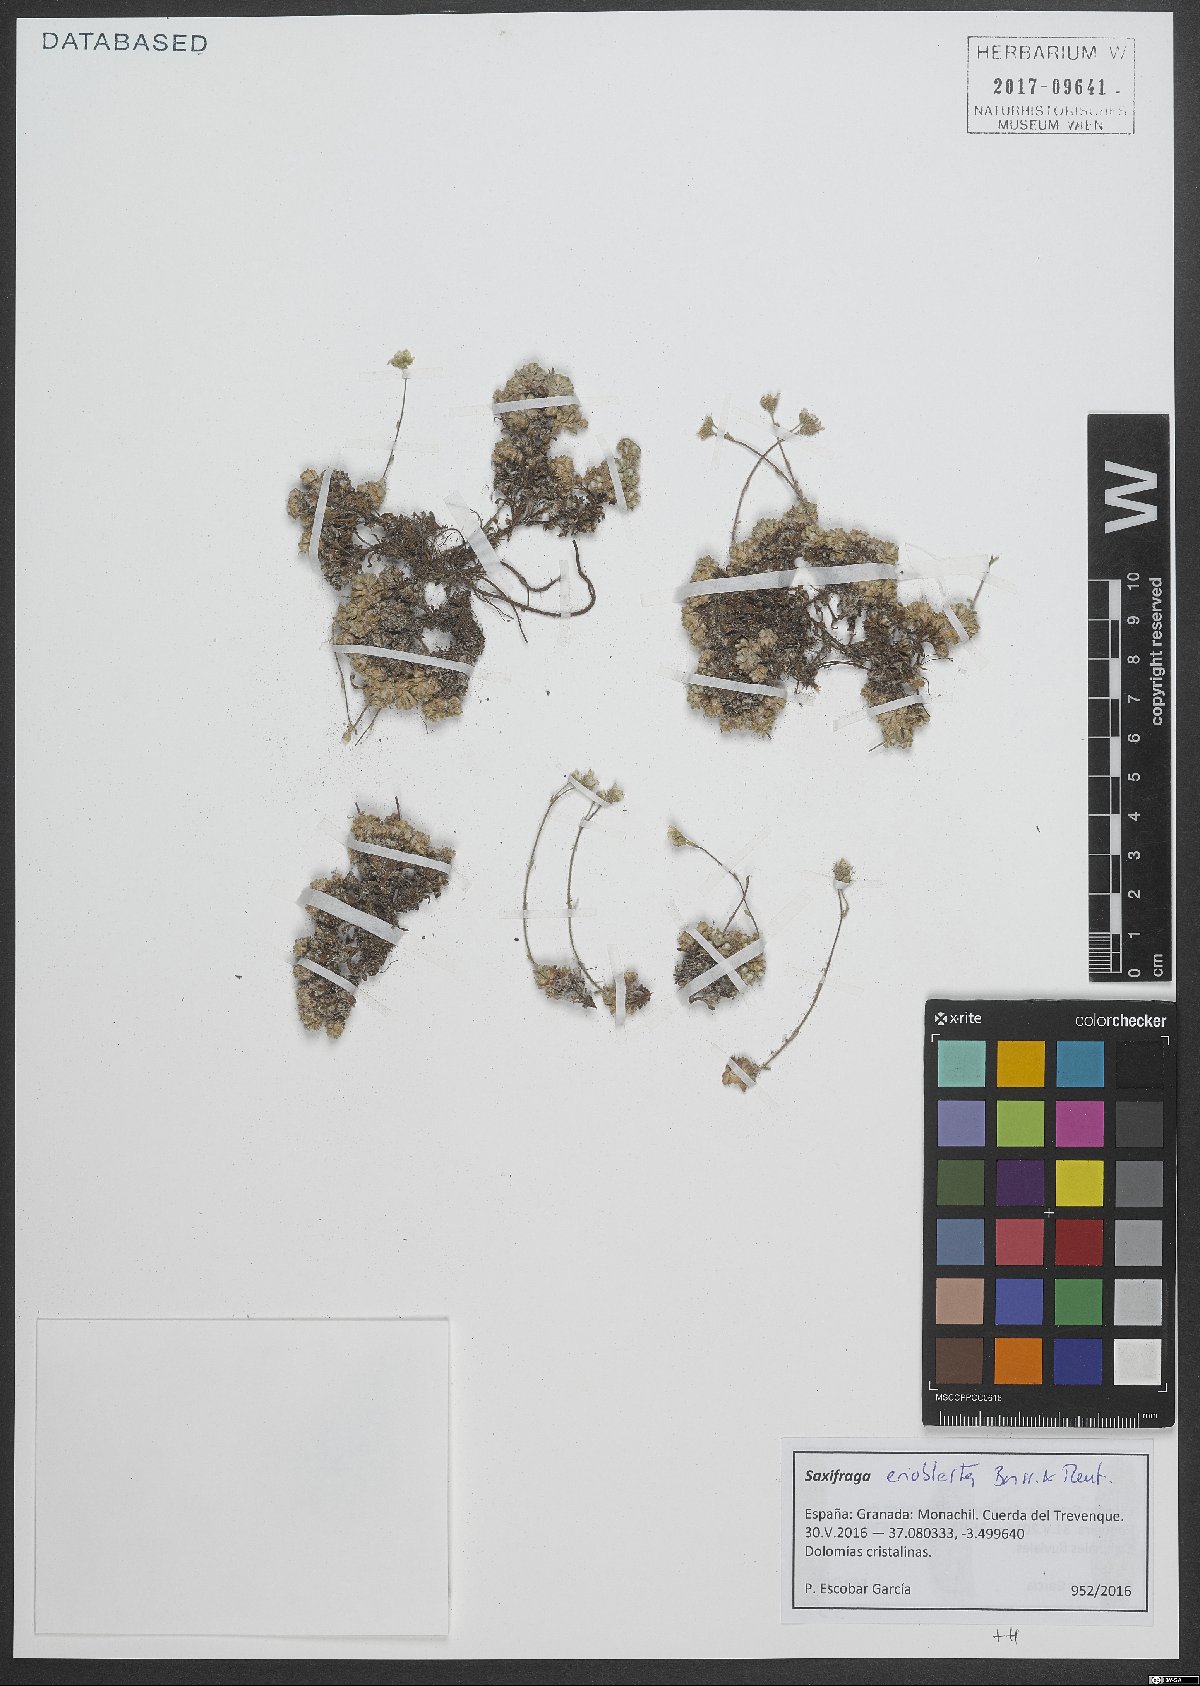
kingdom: Plantae
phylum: Tracheophyta
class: Magnoliopsida
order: Saxifragales
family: Saxifragaceae
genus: Saxifraga
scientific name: Saxifraga erioblasta
